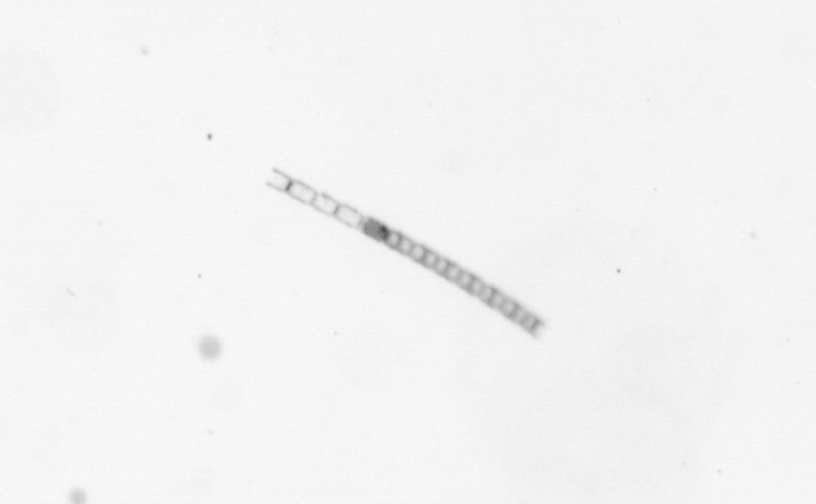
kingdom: Chromista
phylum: Ochrophyta
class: Bacillariophyceae
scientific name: Bacillariophyceae
